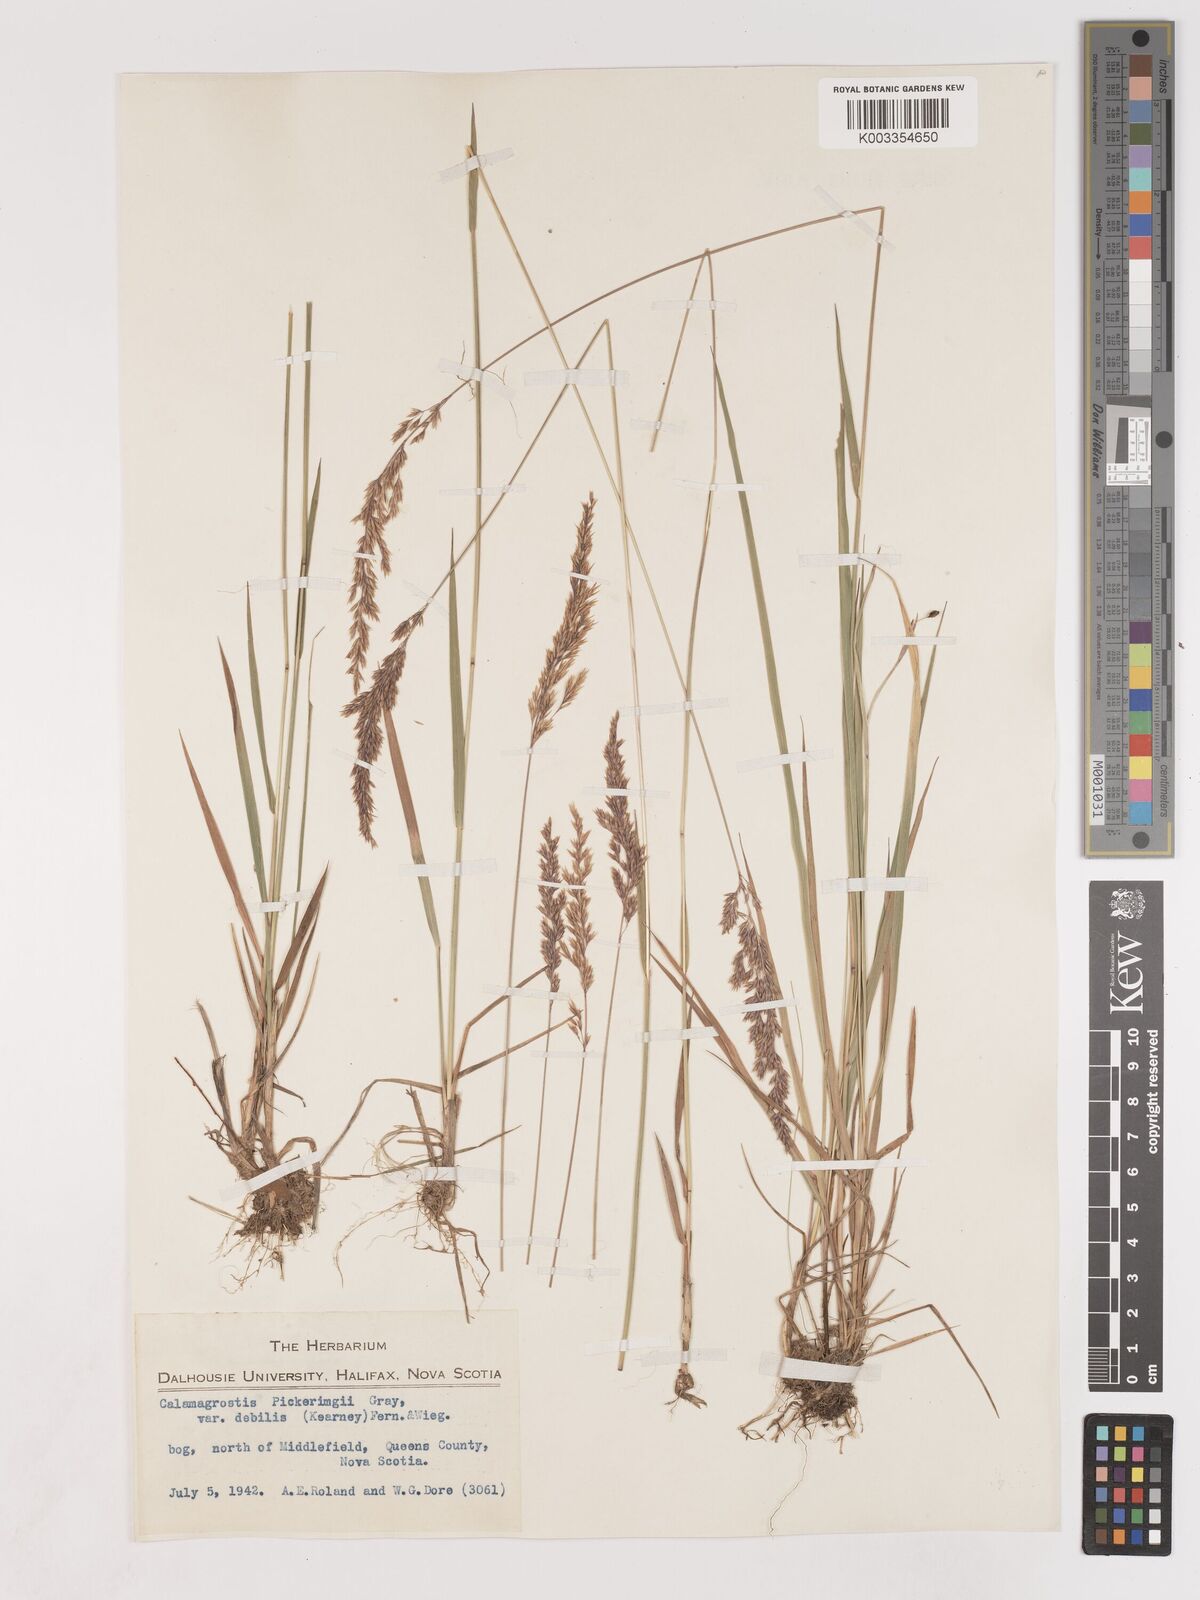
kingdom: Plantae
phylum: Tracheophyta
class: Liliopsida
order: Poales
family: Poaceae
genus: Calamagrostis
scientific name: Calamagrostis pickeringii
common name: Pickering's reed bentgrass
